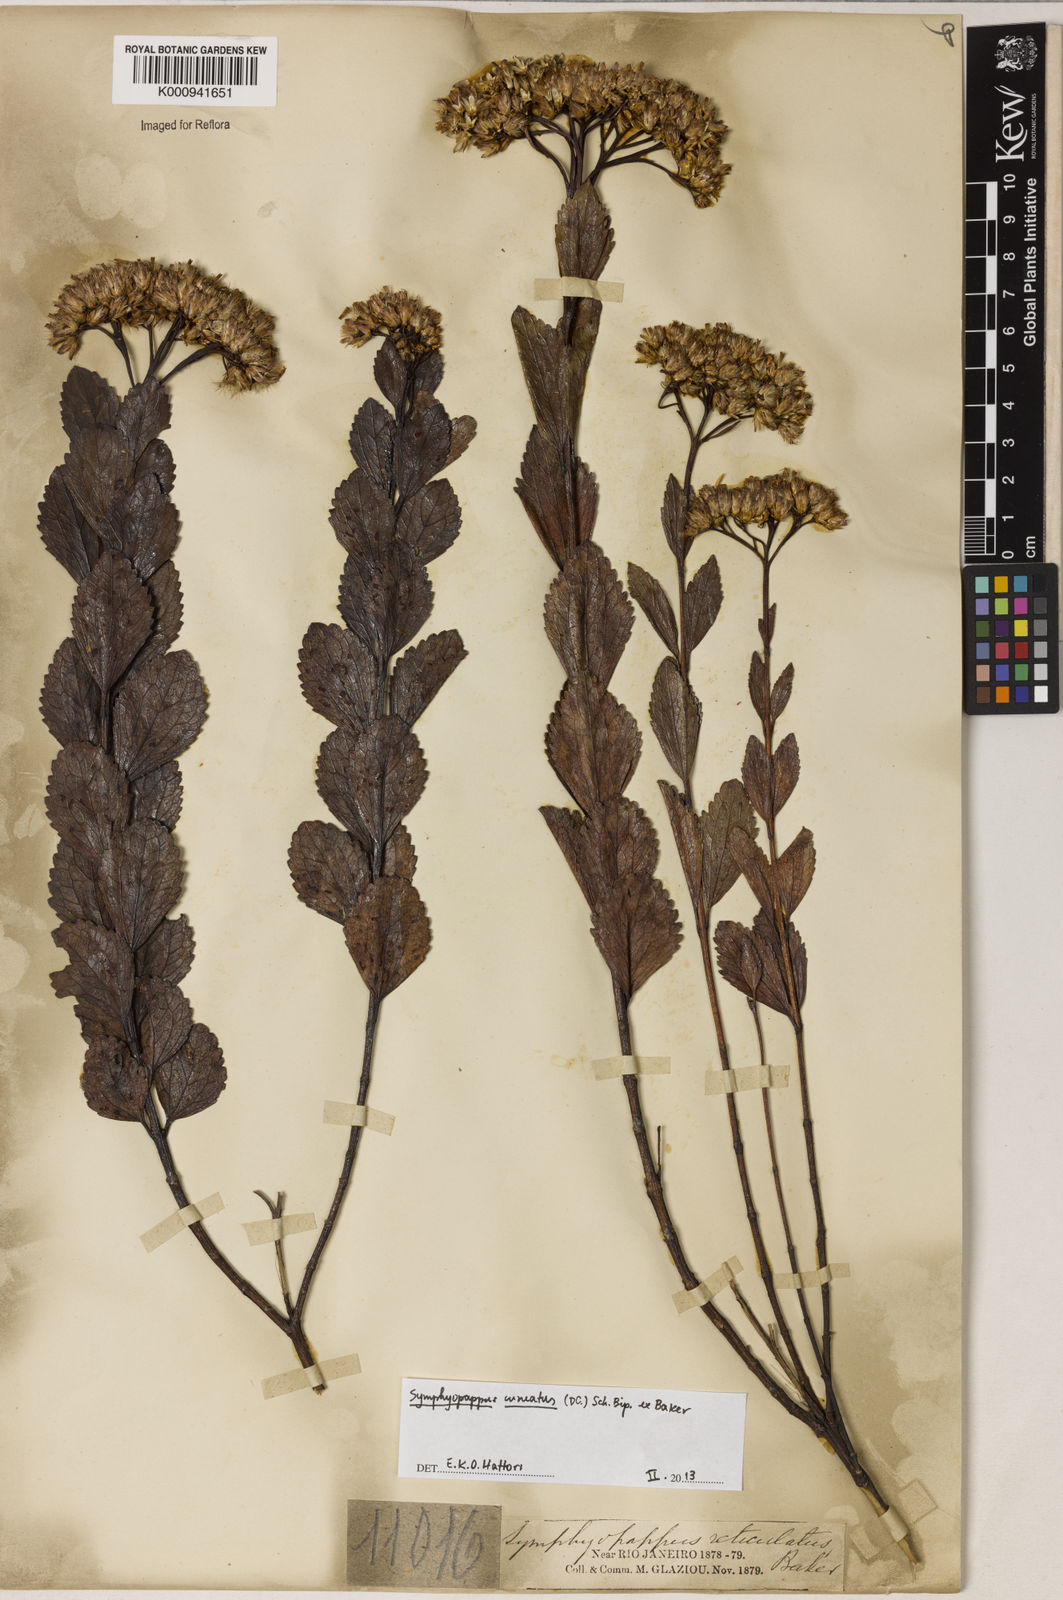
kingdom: Plantae
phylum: Tracheophyta
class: Magnoliopsida
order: Asterales
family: Asteraceae
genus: Symphyopappus
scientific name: Symphyopappus cuneatus
